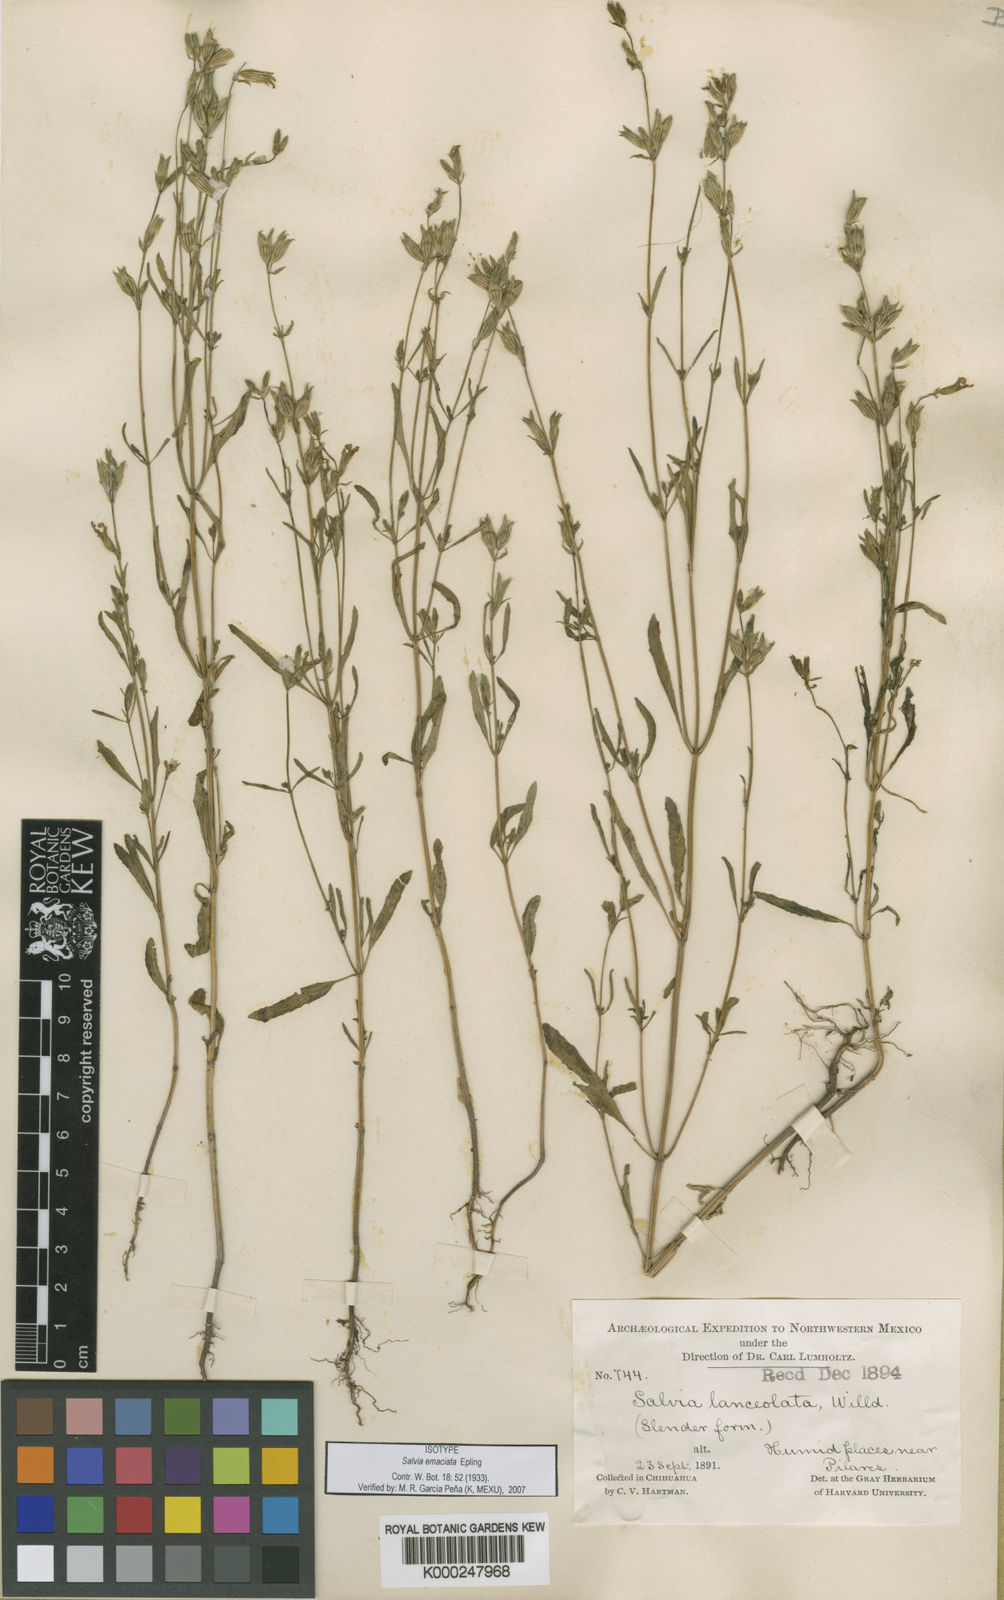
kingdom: Plantae
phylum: Tracheophyta
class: Magnoliopsida
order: Lamiales
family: Lamiaceae
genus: Salvia
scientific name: Salvia emaciata
